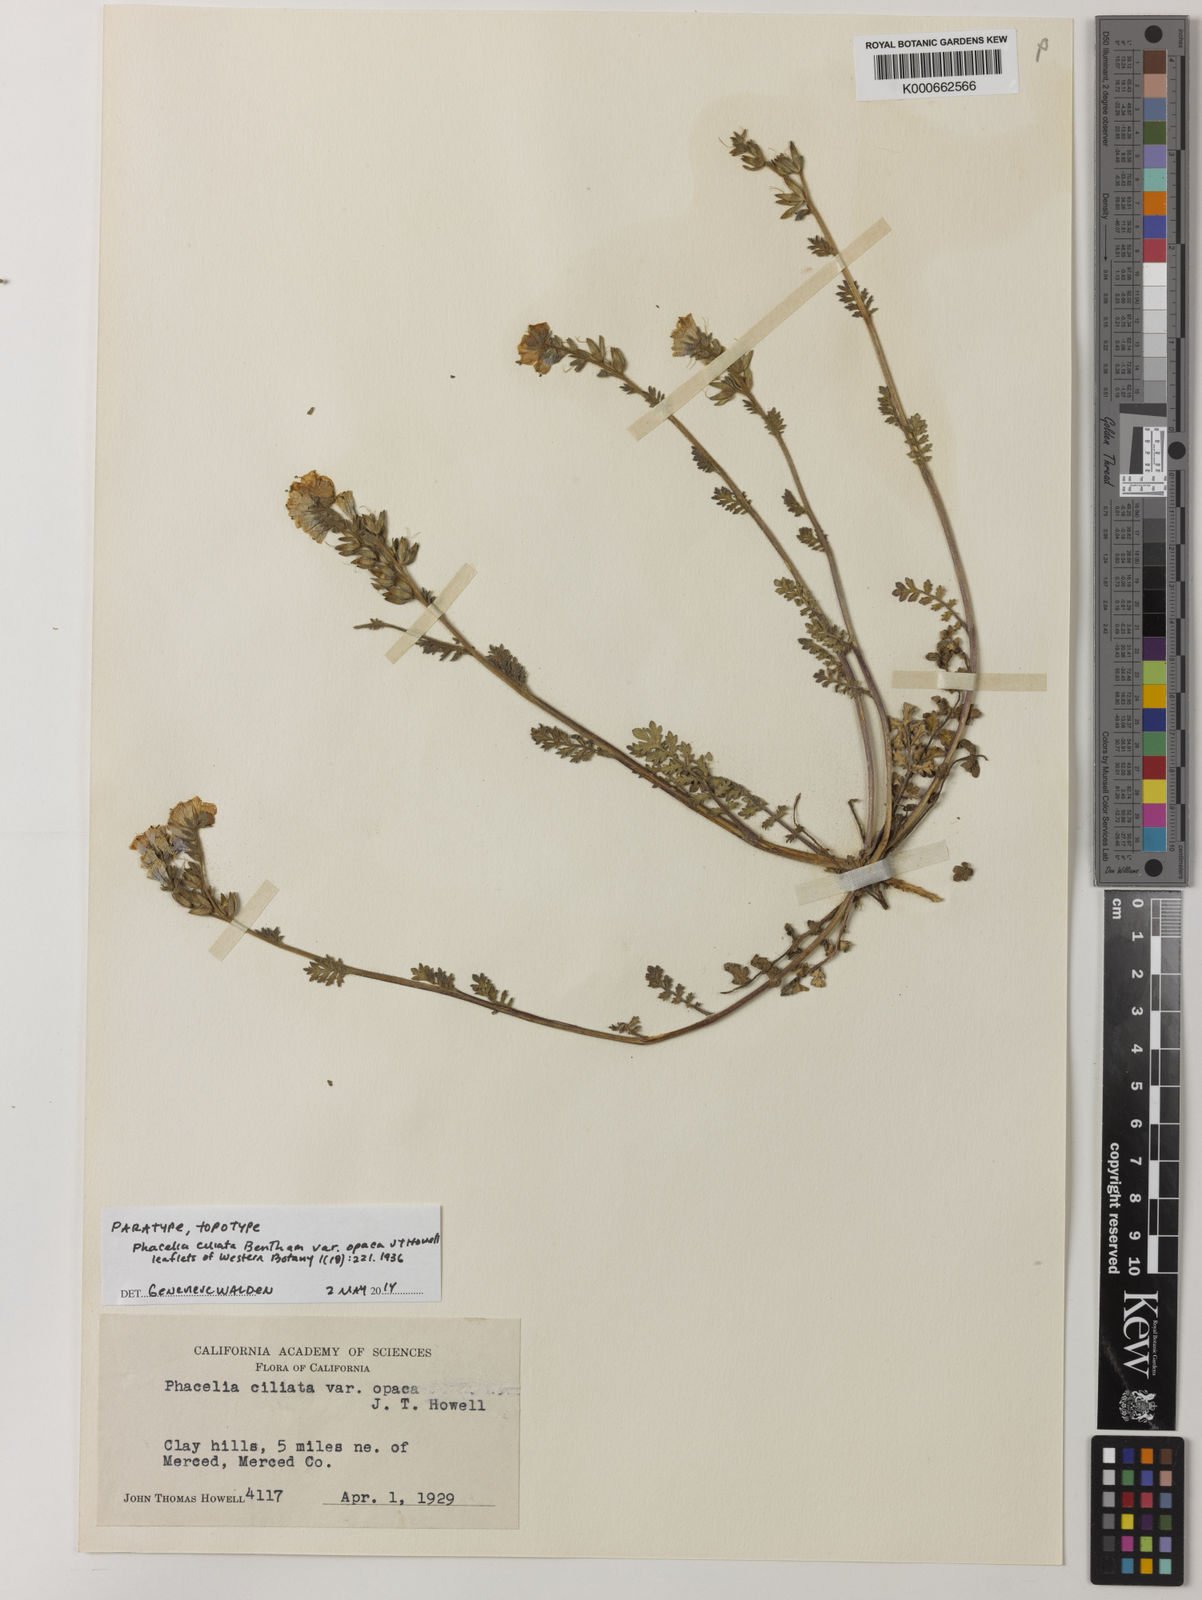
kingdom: Plantae
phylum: Tracheophyta
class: Magnoliopsida
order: Boraginales
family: Hydrophyllaceae
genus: Phacelia
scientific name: Phacelia ciliata
